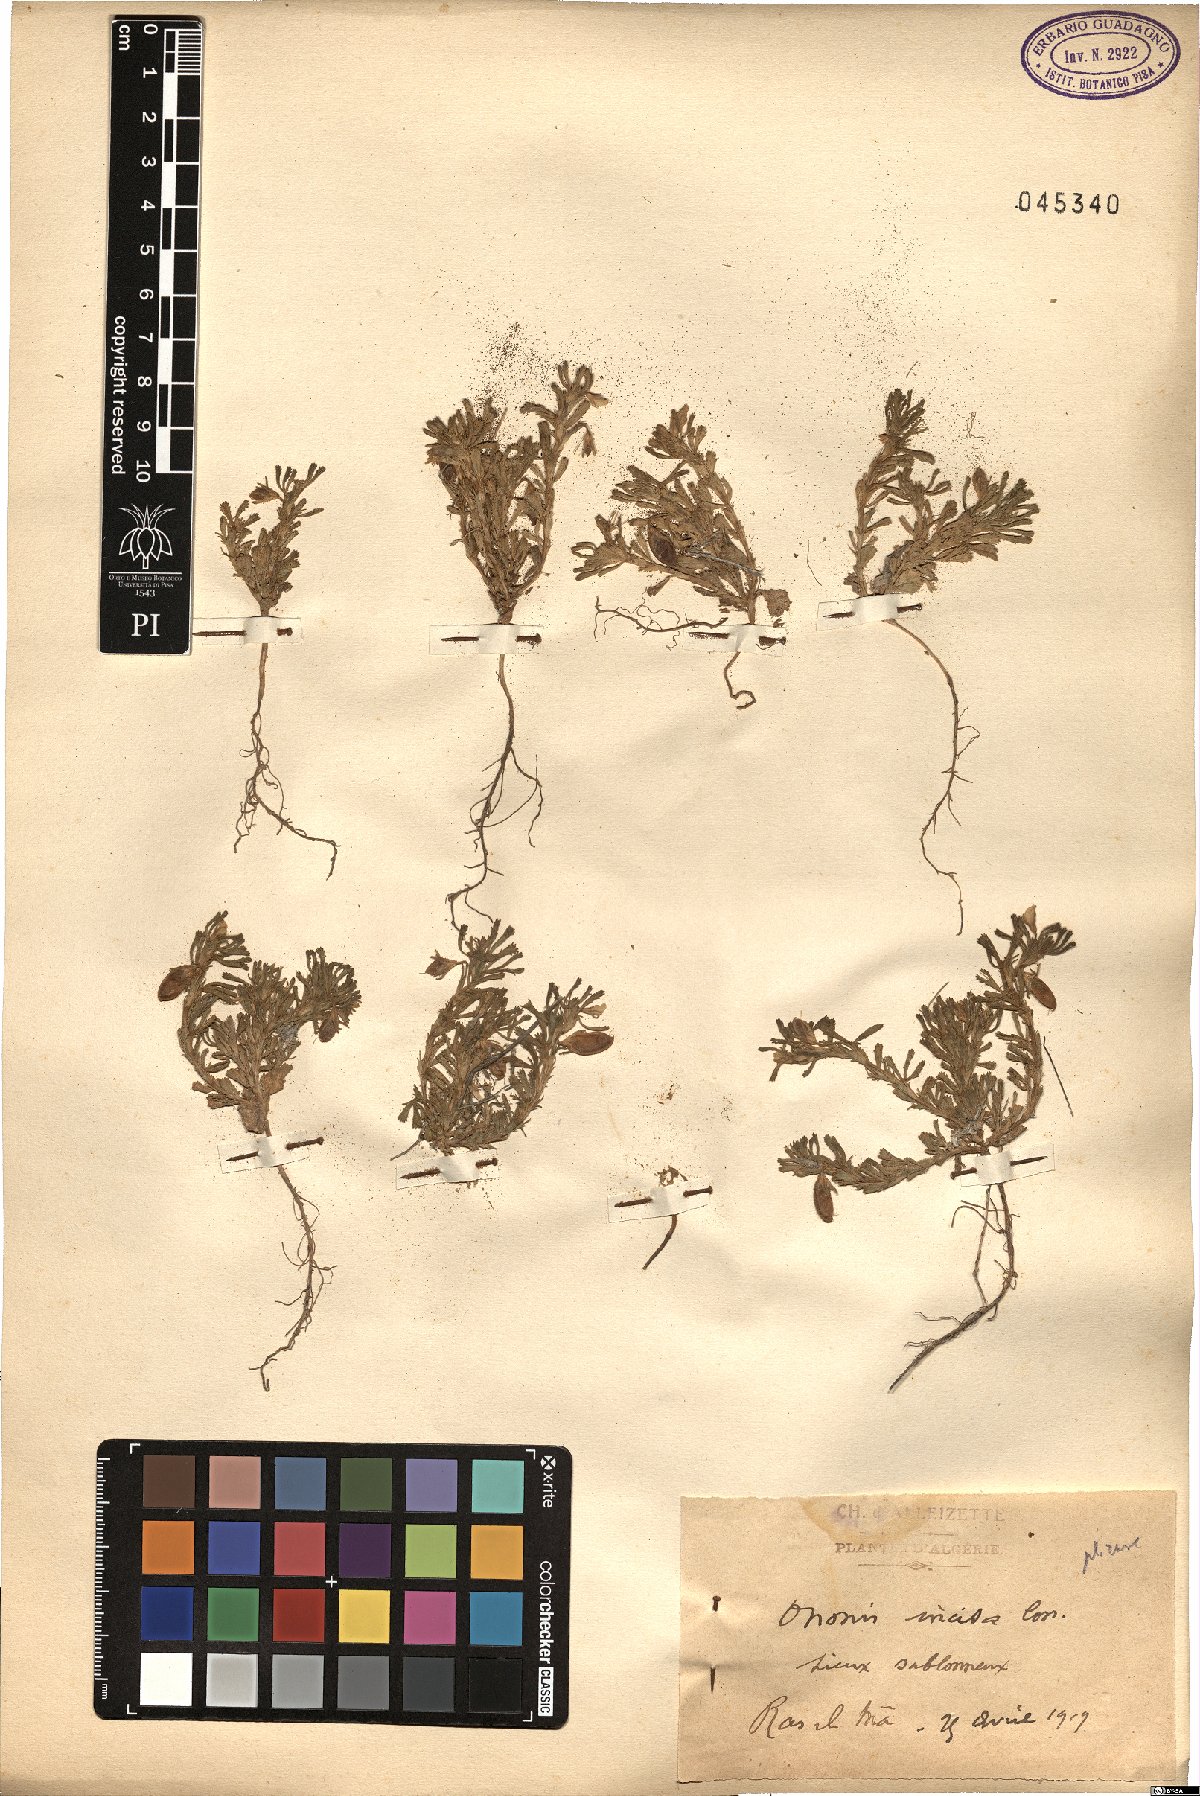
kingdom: Plantae
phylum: Tracheophyta
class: Magnoliopsida
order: Fabales
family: Fabaceae
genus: Ononis
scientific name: Ononis incisa
